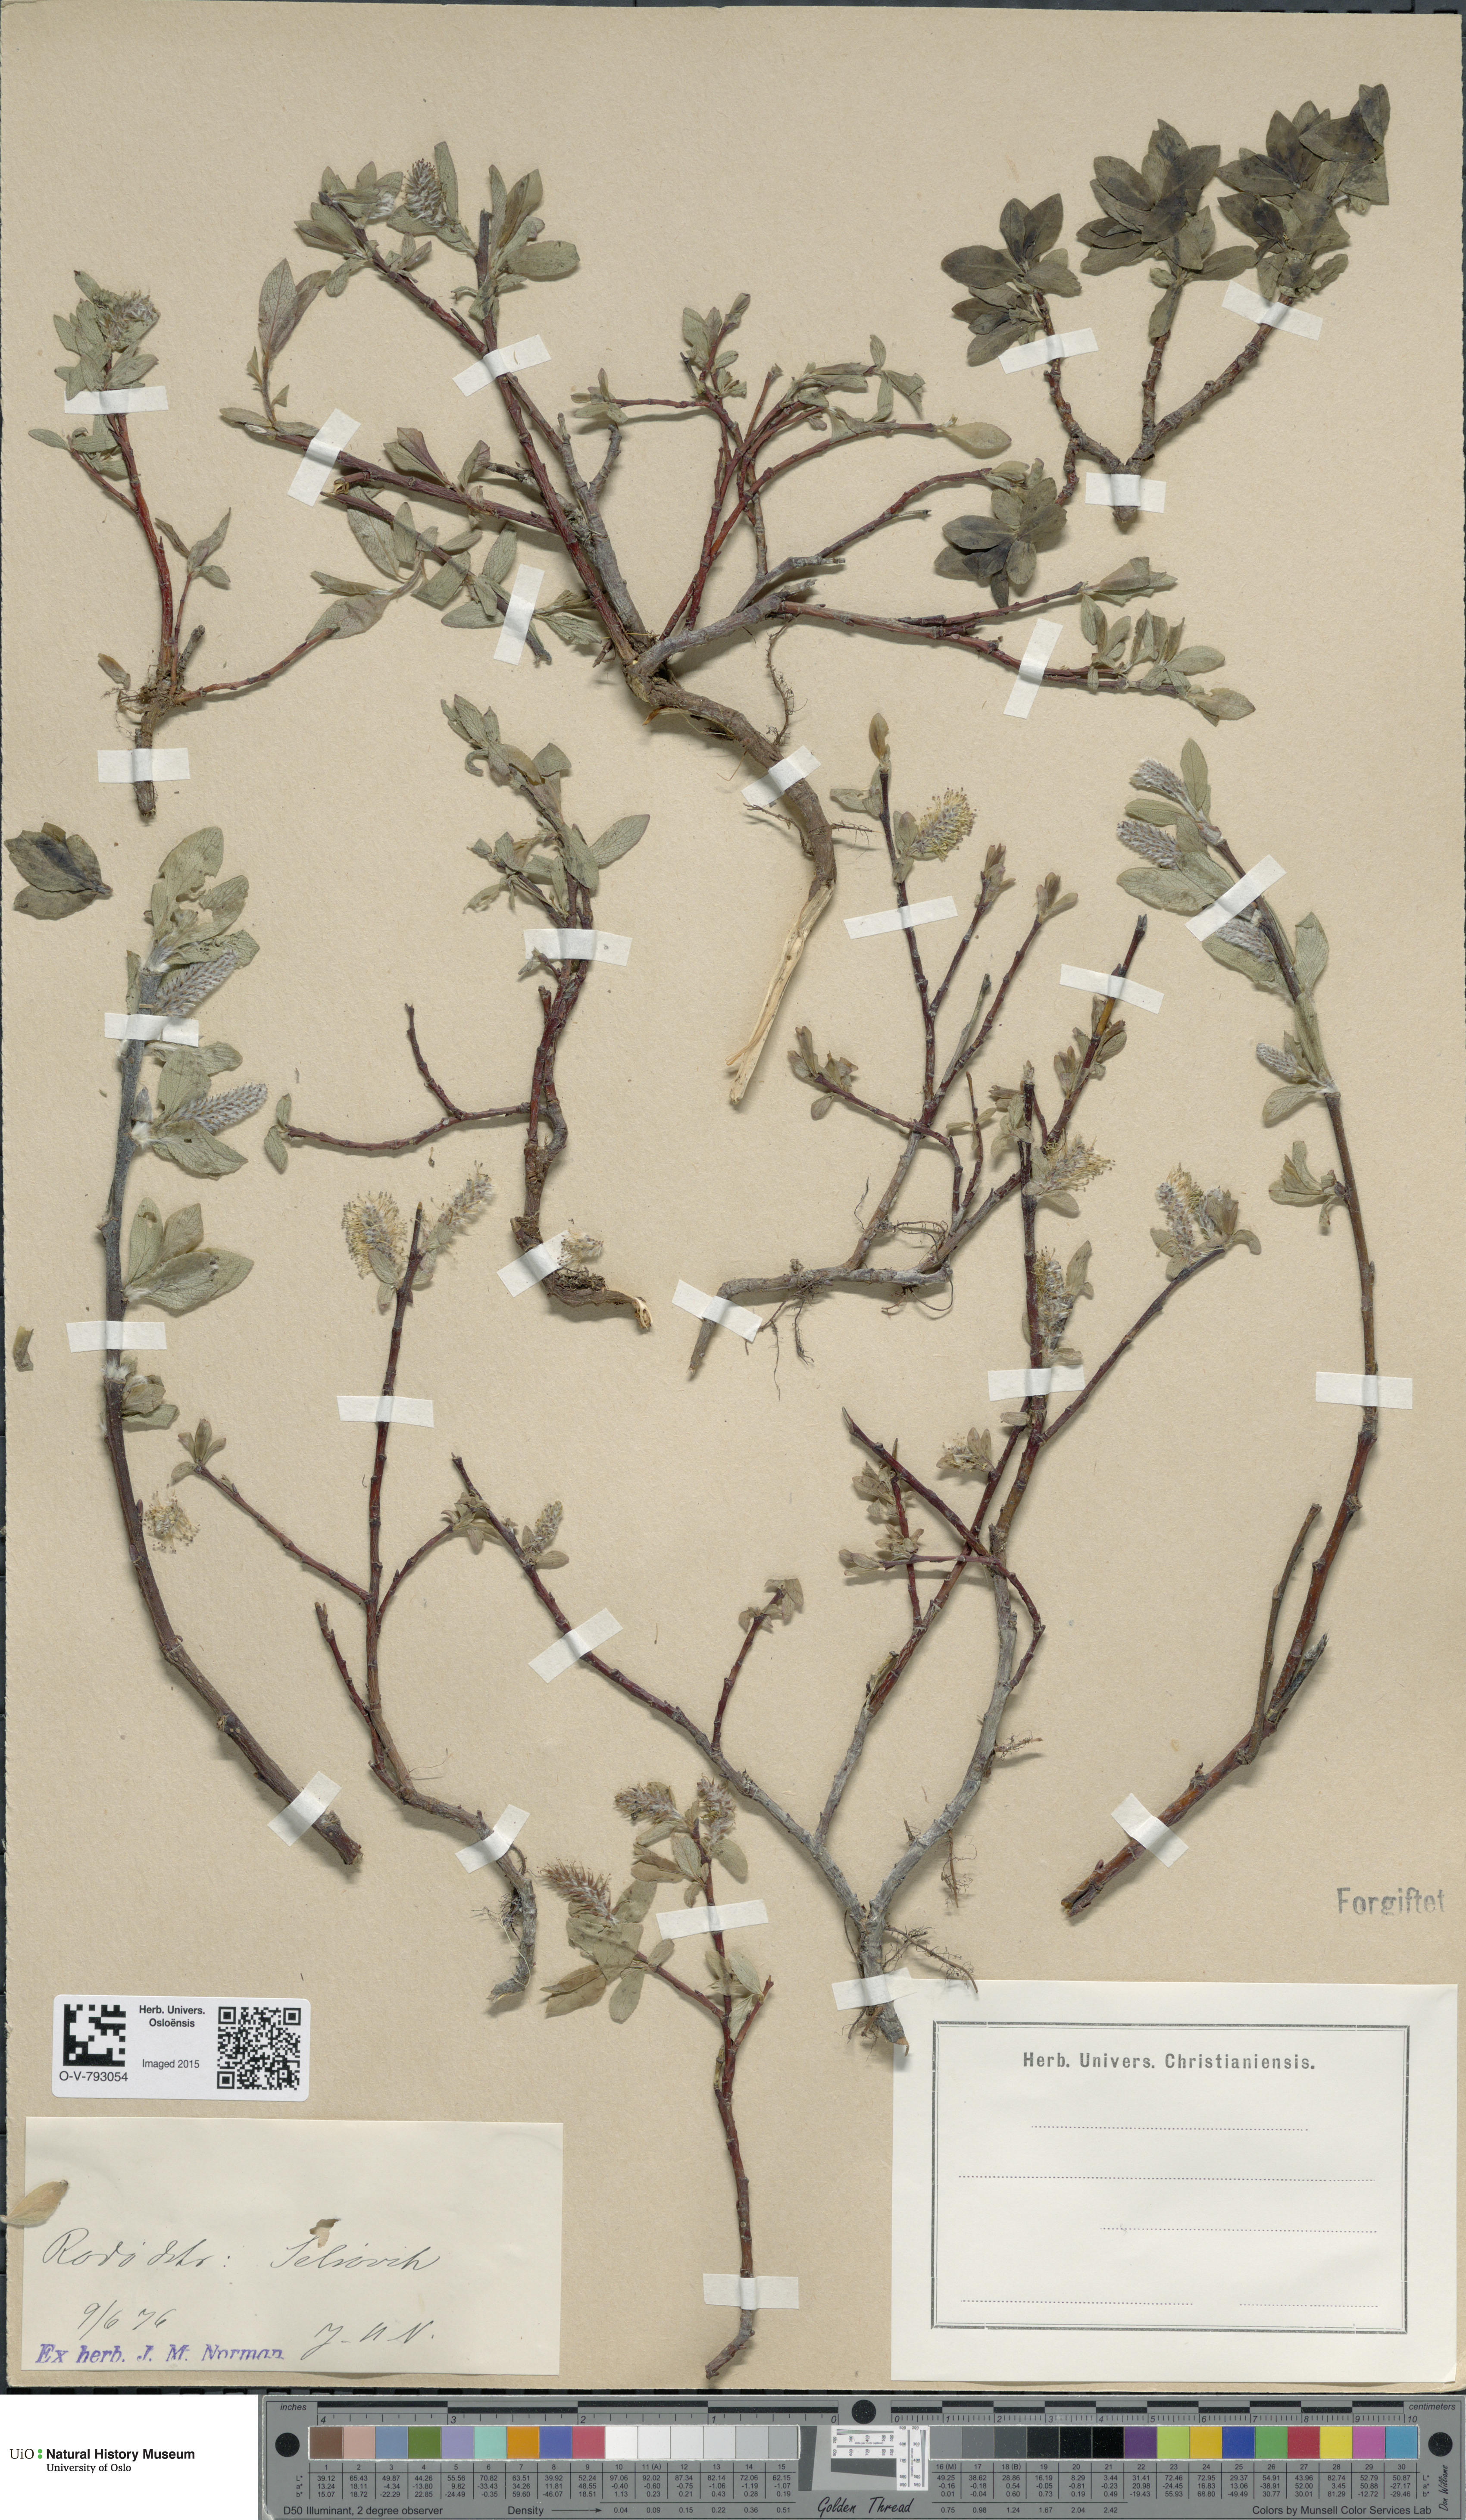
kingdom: Plantae
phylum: Tracheophyta
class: Magnoliopsida
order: Malpighiales
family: Salicaceae
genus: Salix
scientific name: Salix hastata
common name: Halberd willow
